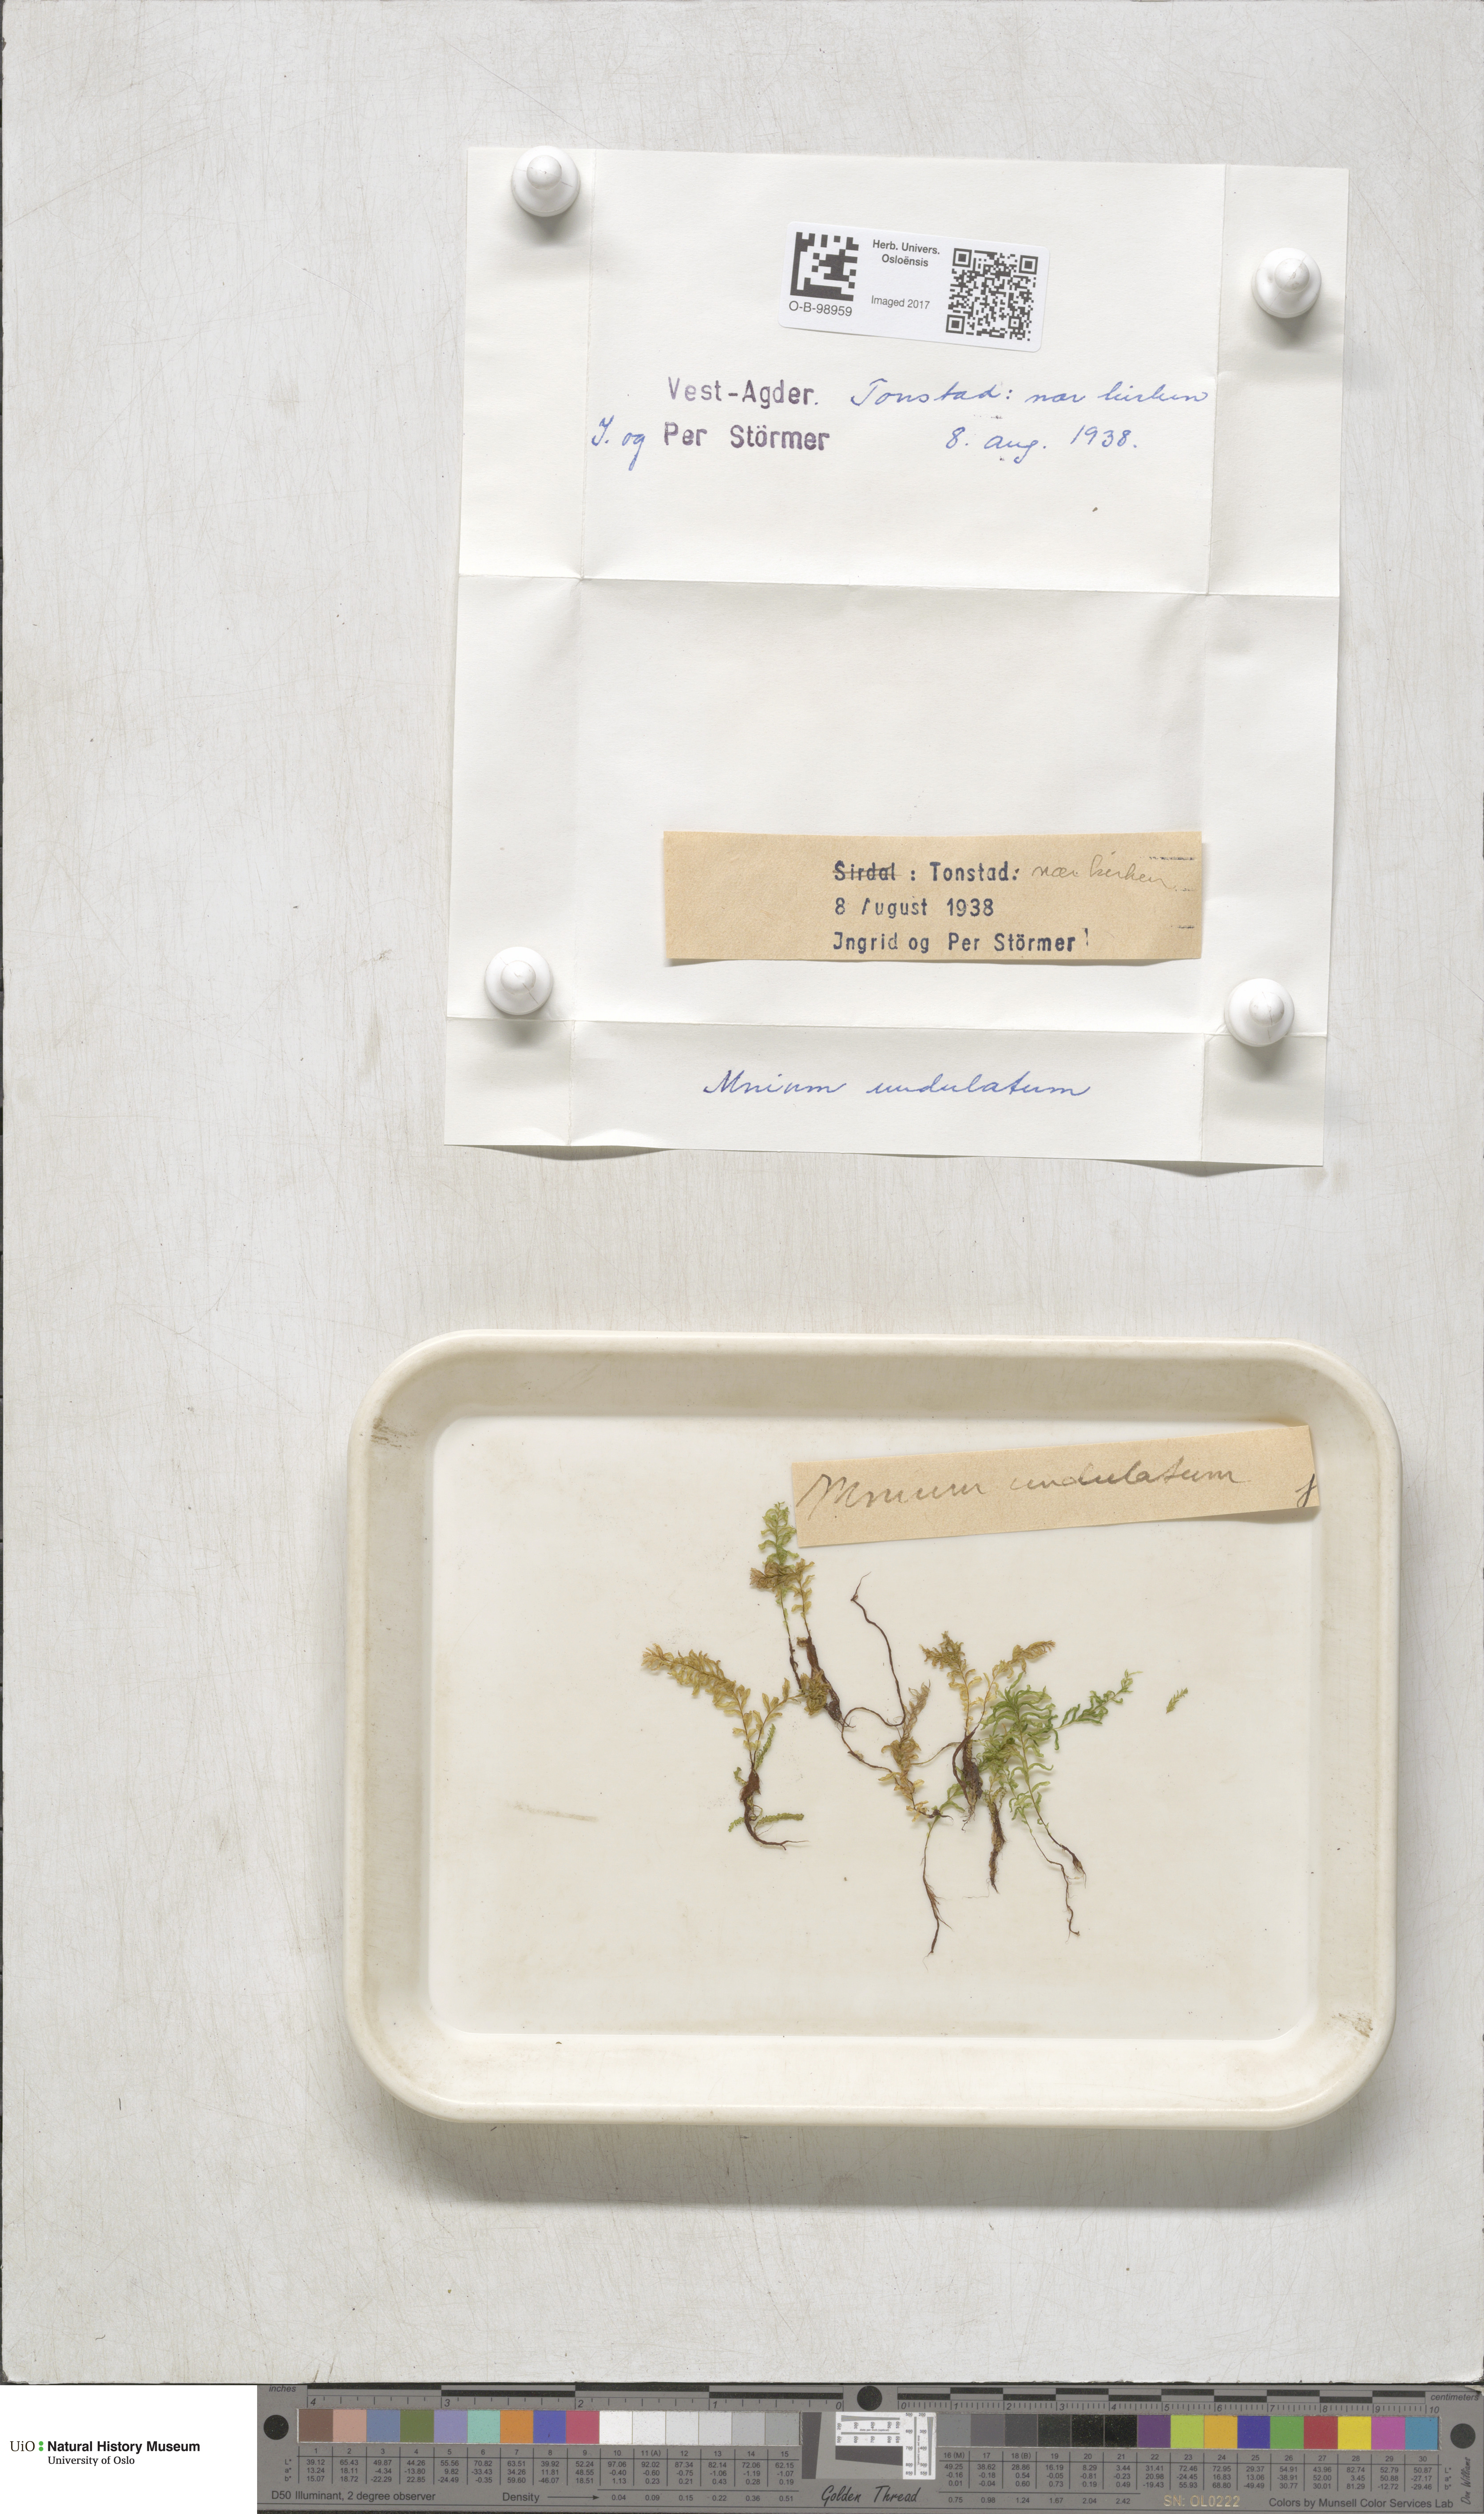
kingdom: Plantae
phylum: Bryophyta
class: Bryopsida
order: Bryales
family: Mniaceae
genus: Plagiomnium
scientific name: Plagiomnium undulatum
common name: Hart's-tongue thyme-moss
